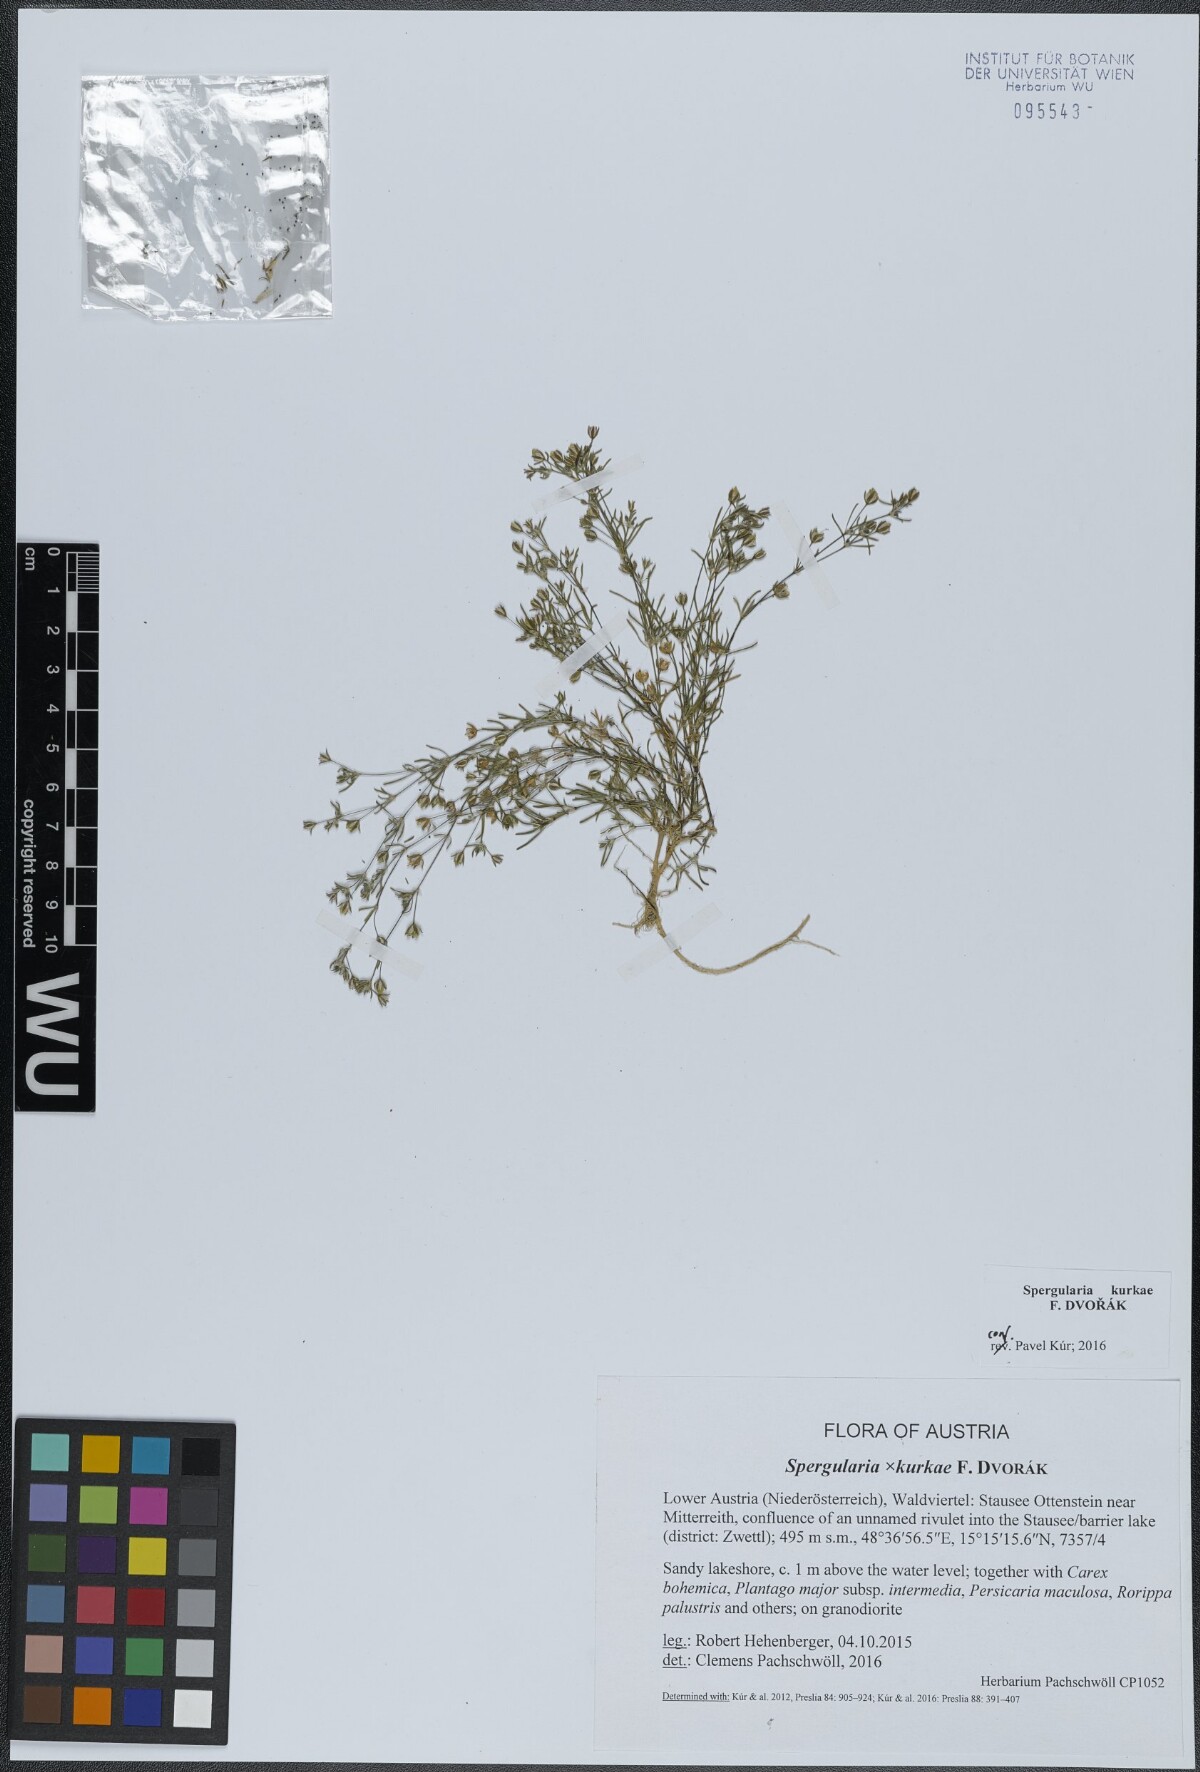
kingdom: Plantae
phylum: Tracheophyta
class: Magnoliopsida
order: Caryophyllales
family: Caryophyllaceae
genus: Spergularia
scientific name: Spergularia kurkae
